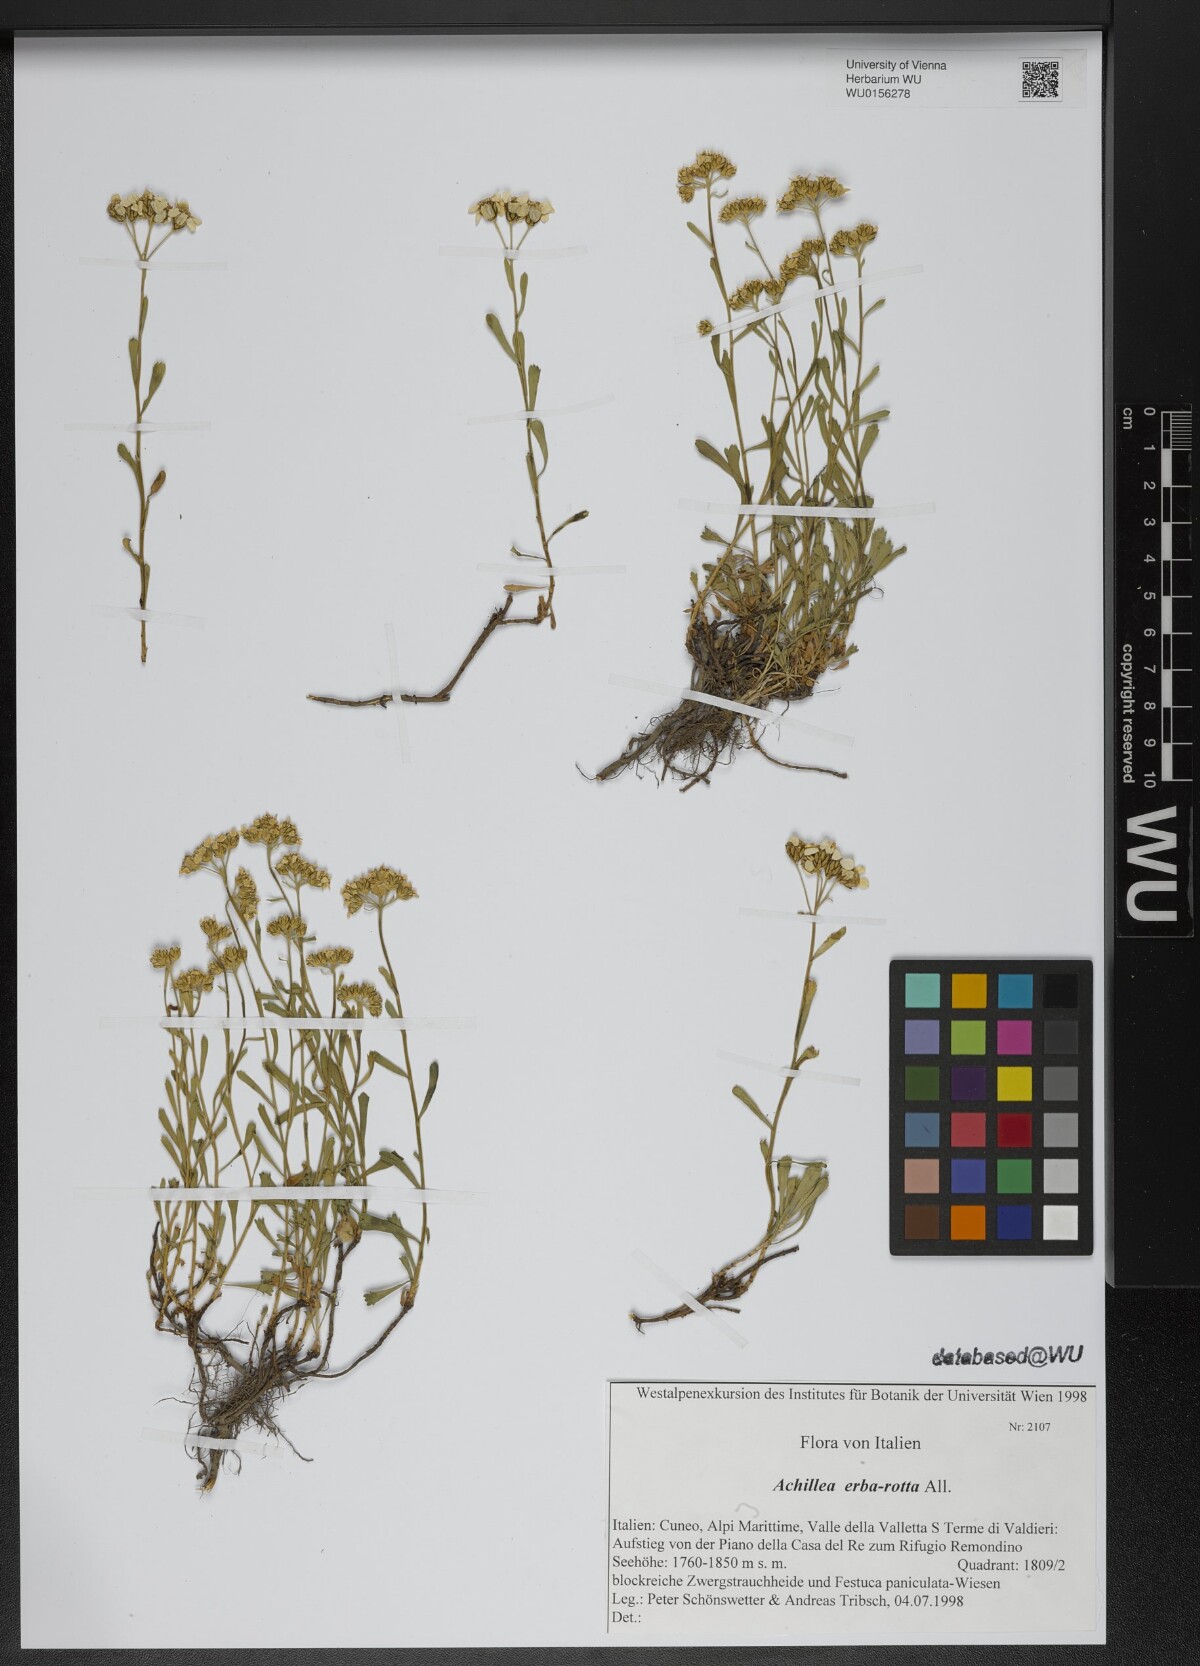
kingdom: Plantae
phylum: Tracheophyta
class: Magnoliopsida
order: Asterales
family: Asteraceae
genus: Achillea
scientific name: Achillea erba-rotta
